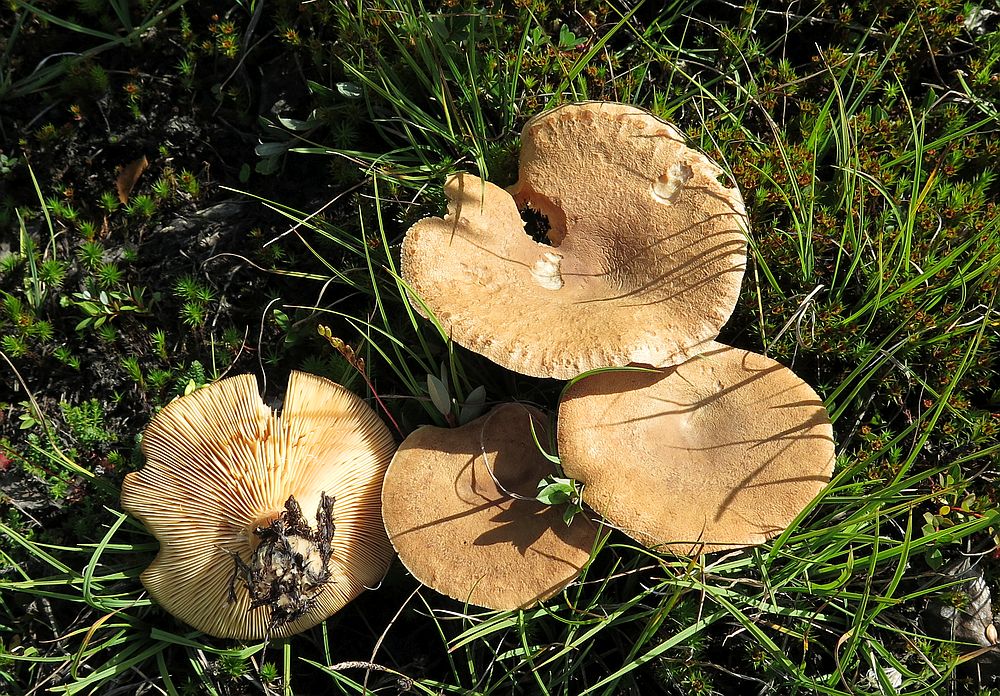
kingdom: Fungi
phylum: Basidiomycota
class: Agaricomycetes
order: Russulales
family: Russulaceae
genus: Lactarius
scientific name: Lactarius helvus
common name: mose-mælkehat
